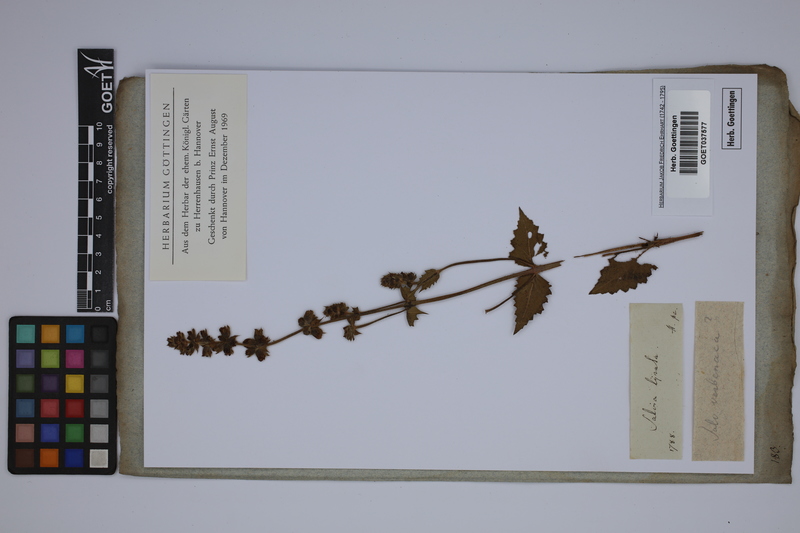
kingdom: Plantae
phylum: Tracheophyta
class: Magnoliopsida
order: Lamiales
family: Lamiaceae
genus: Salvia
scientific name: Salvia lyrata
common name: Cancerweed
